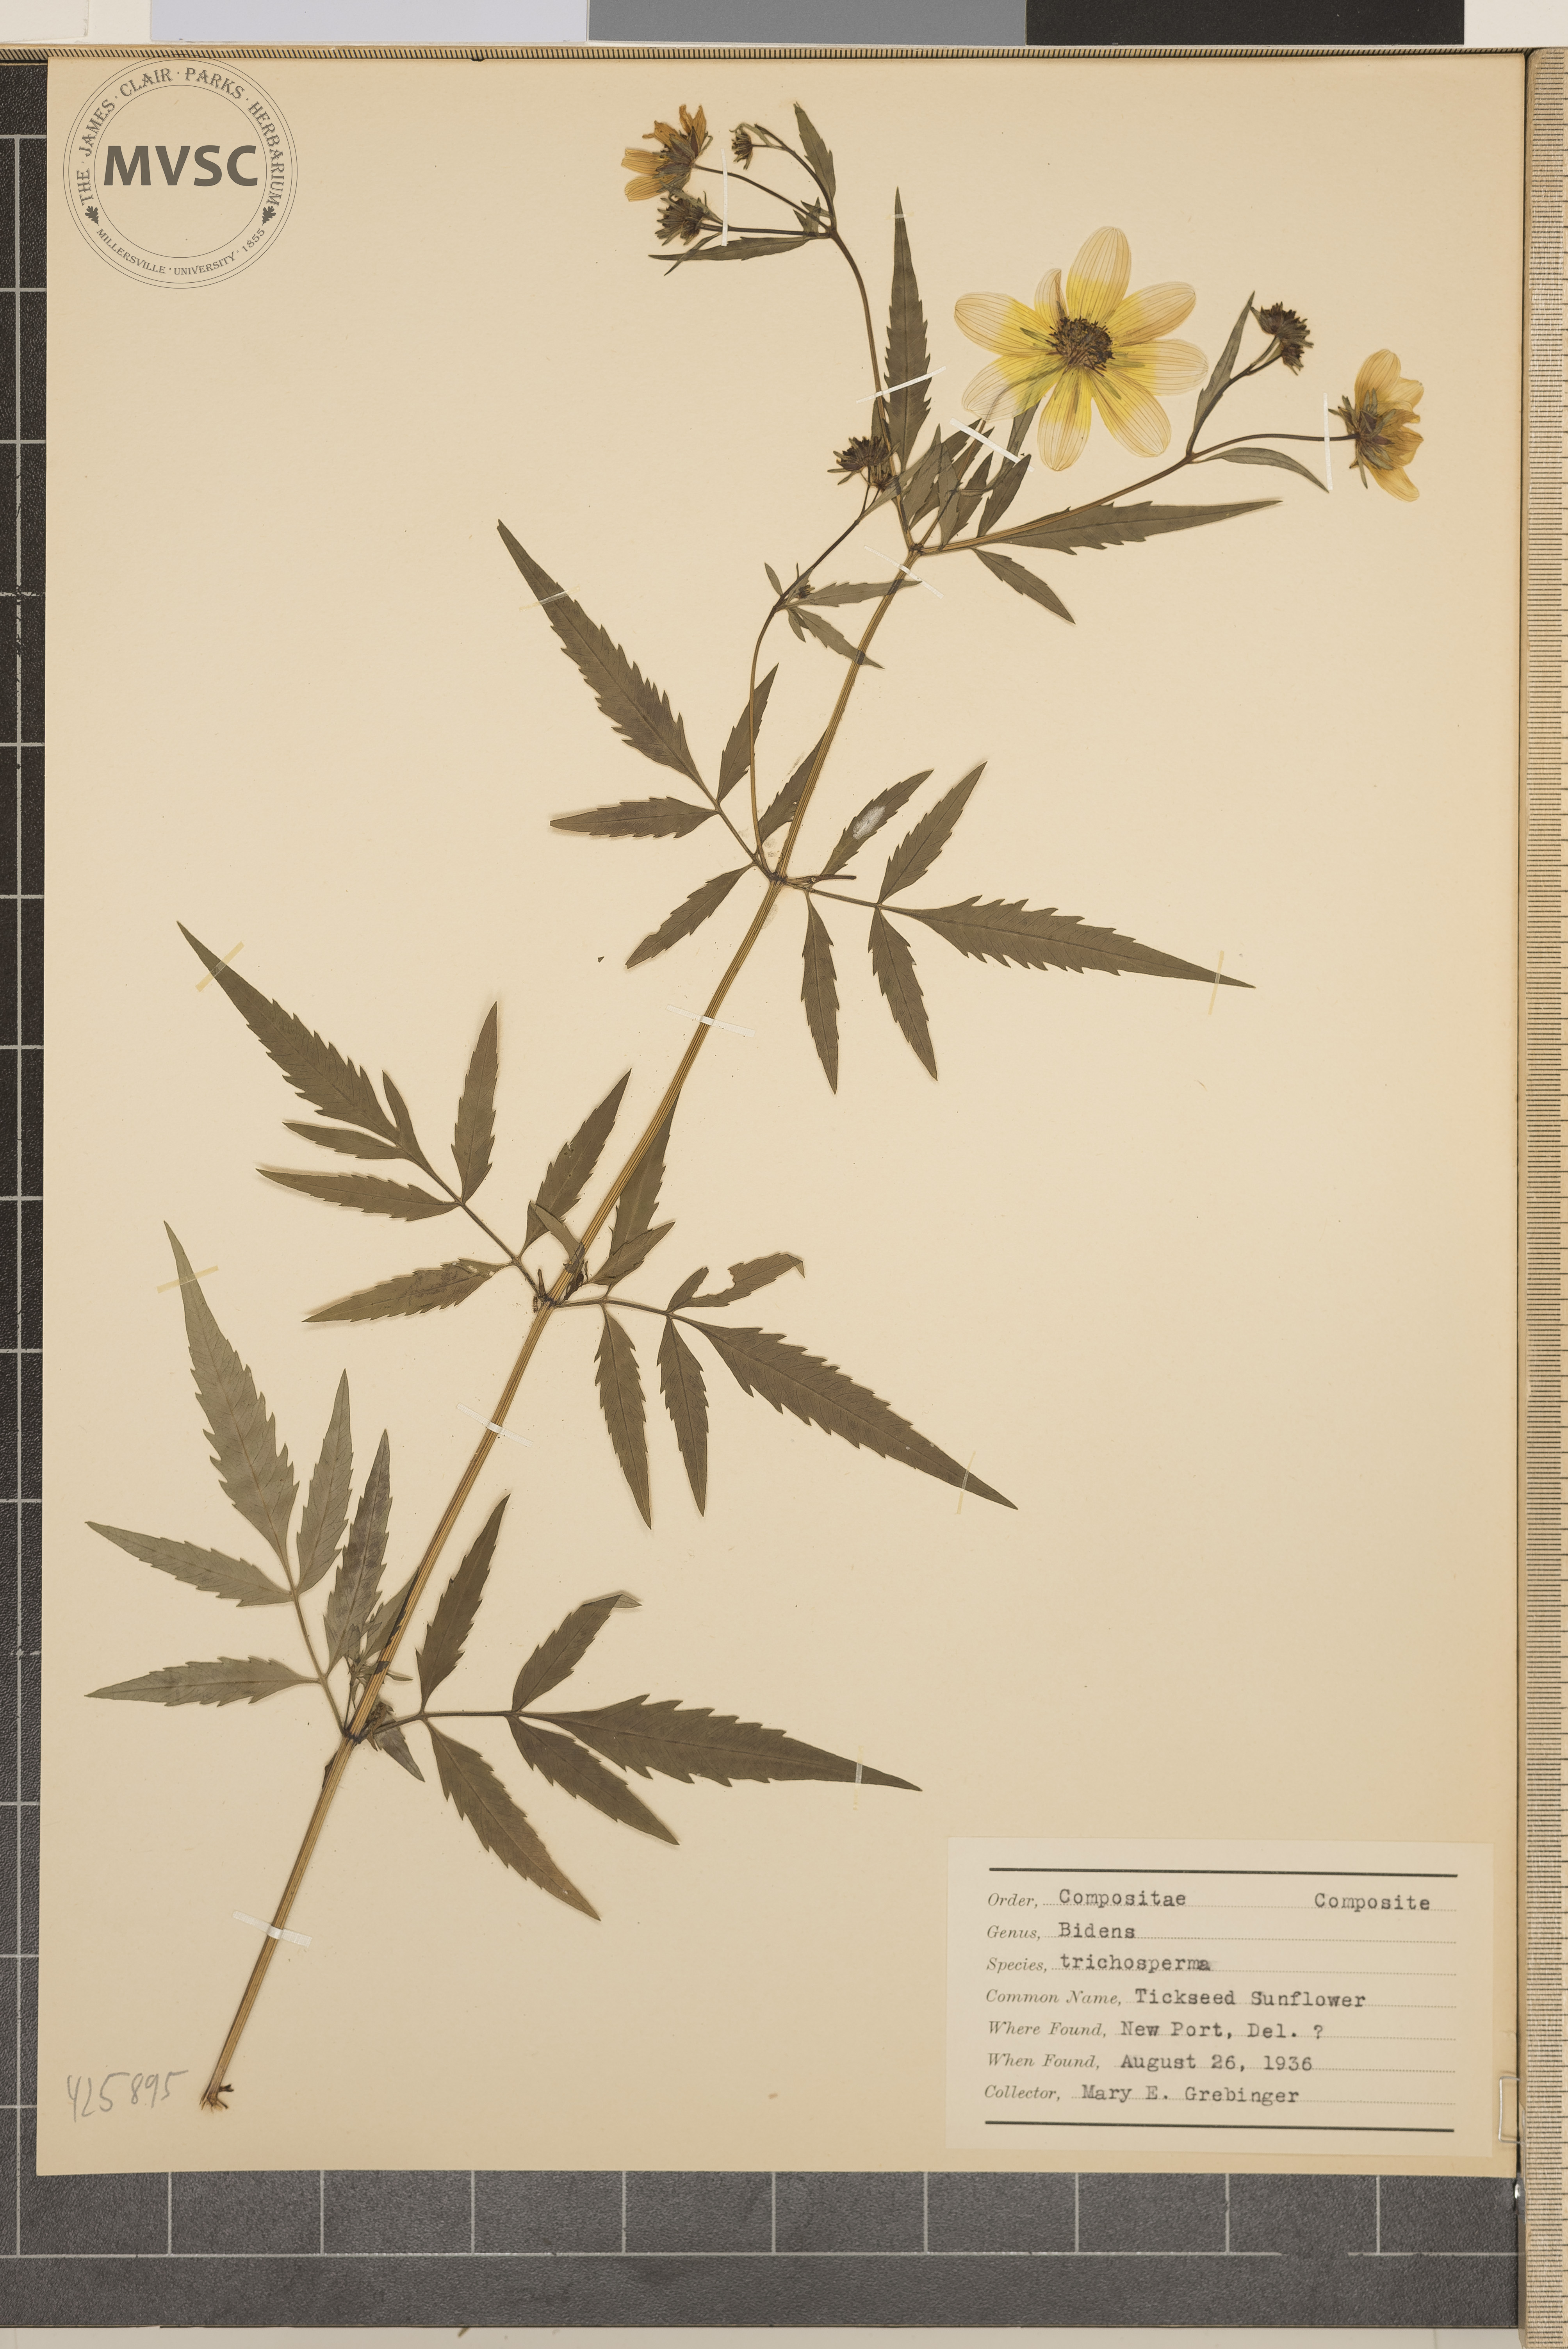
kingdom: Plantae
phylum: Tracheophyta
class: Magnoliopsida
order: Asterales
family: Asteraceae
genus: Bidens
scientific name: Bidens trichosperma
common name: Tickseed sunflower
